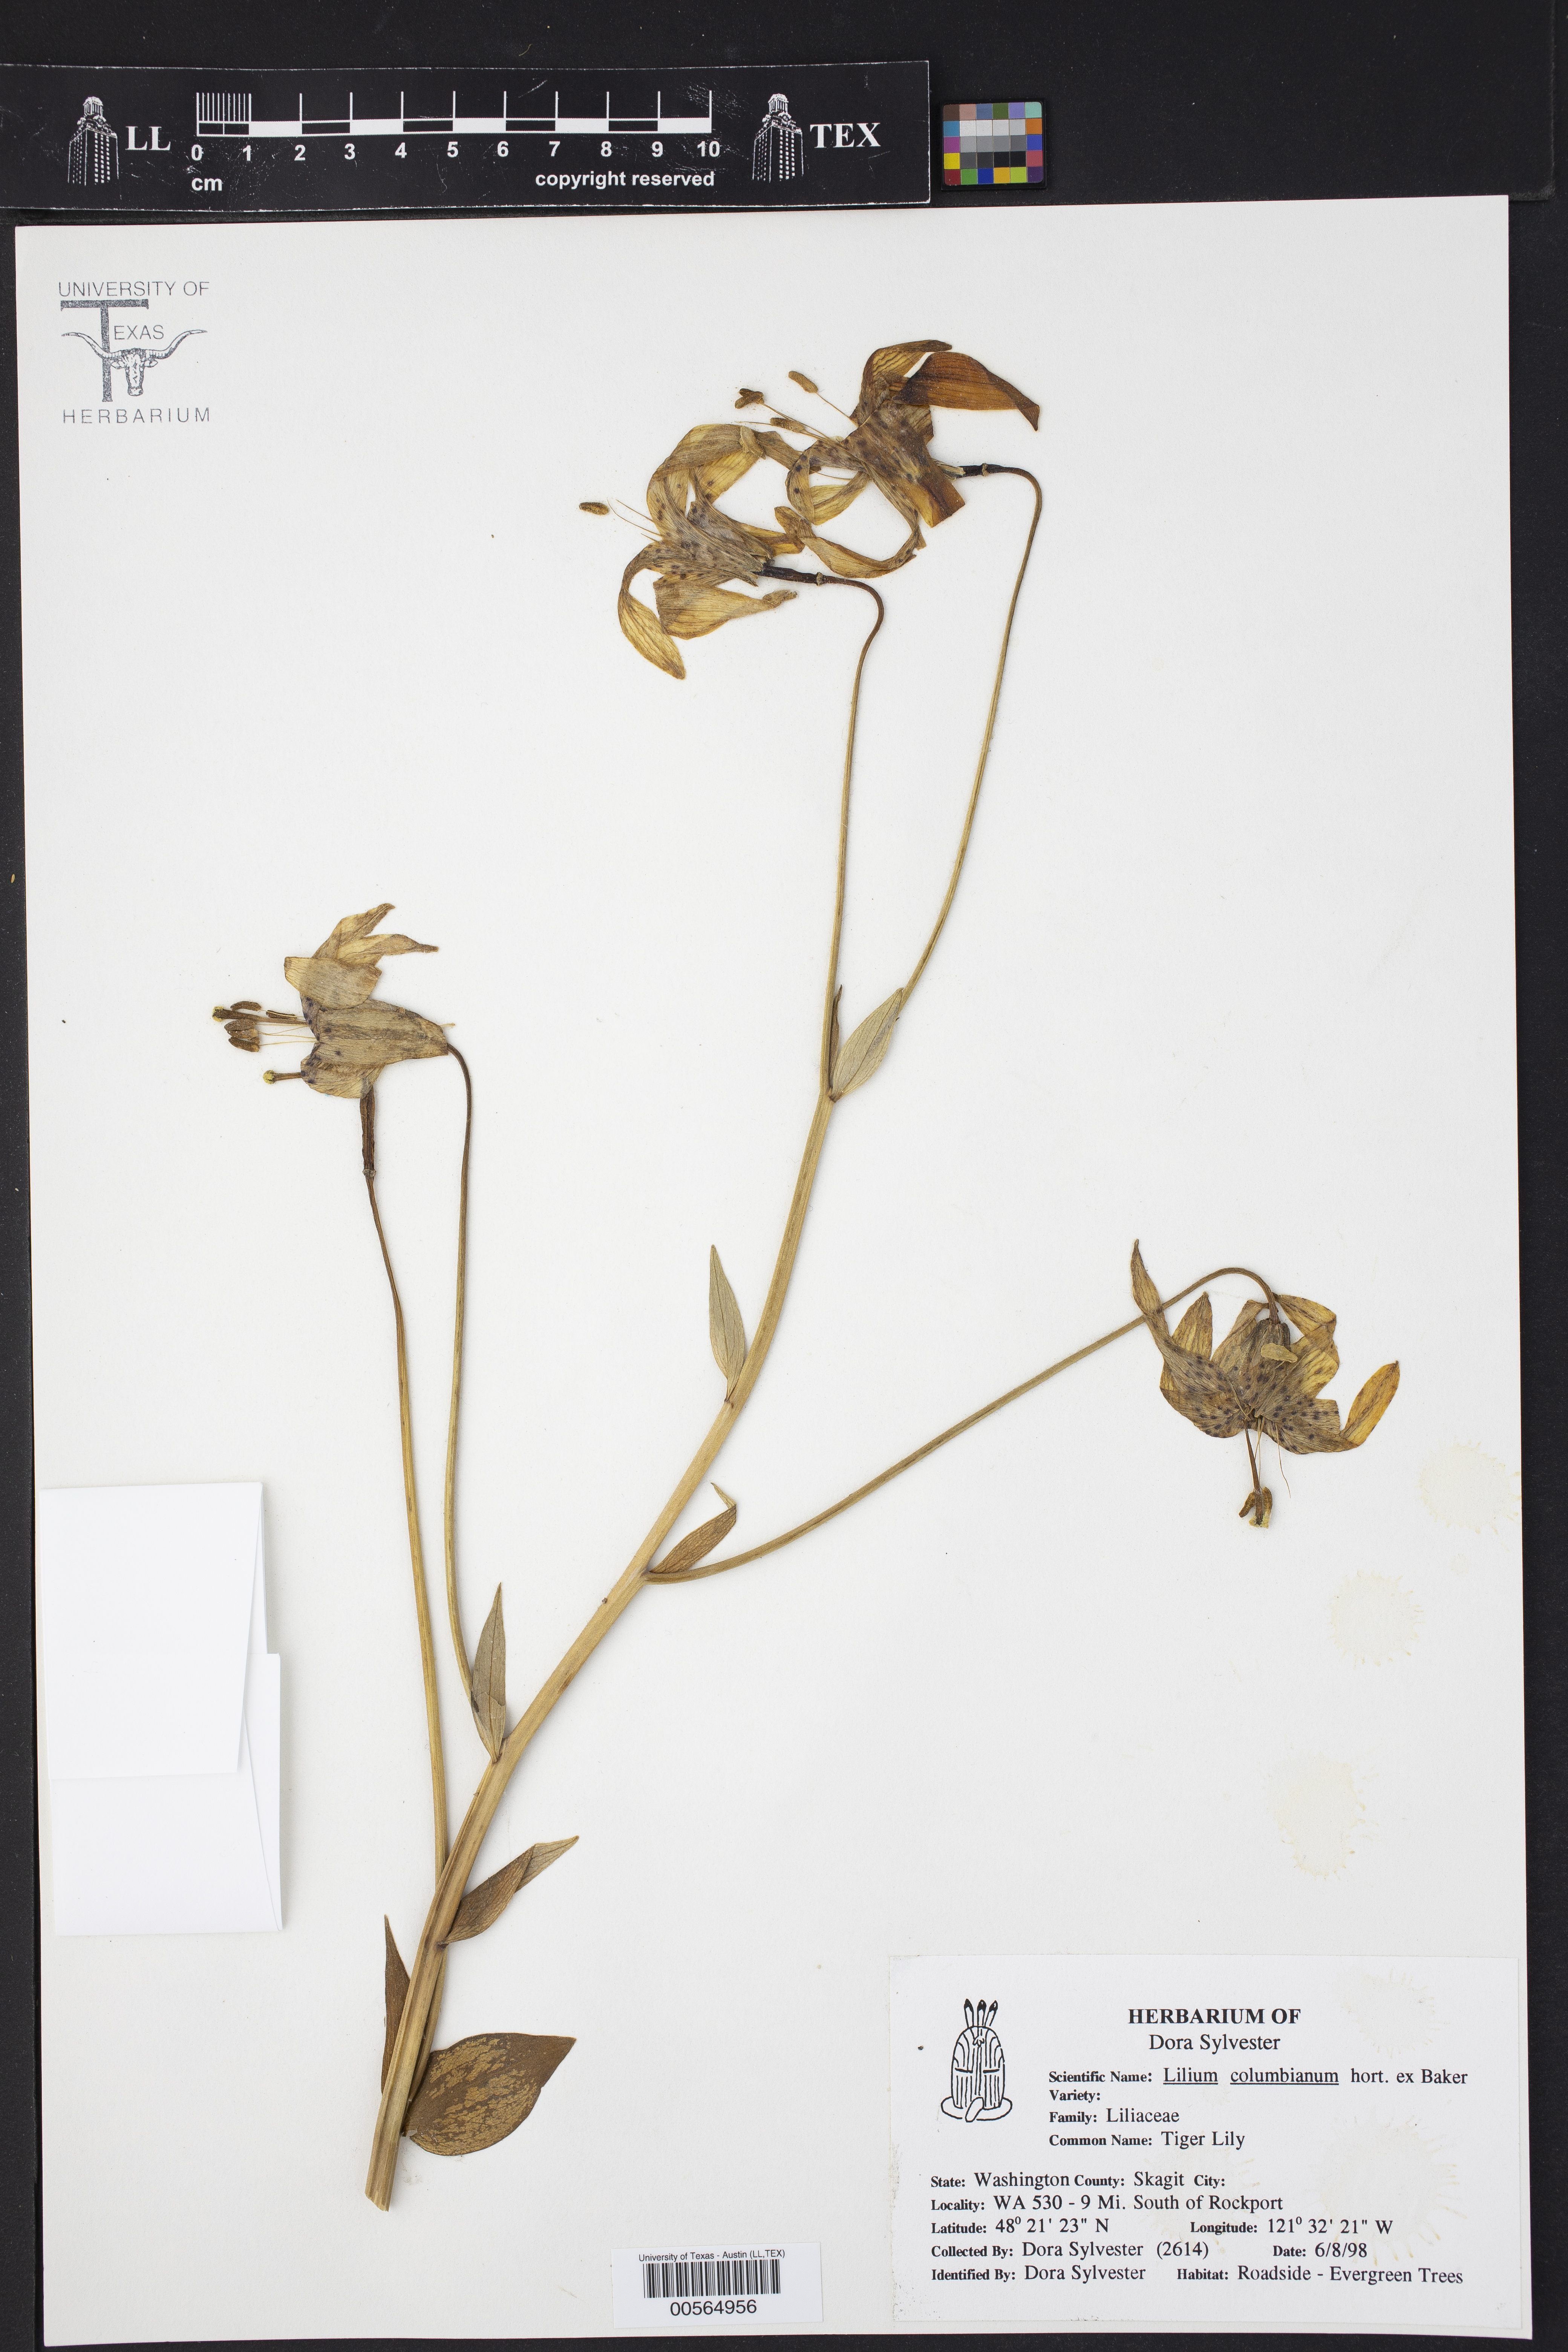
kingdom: Plantae
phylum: Tracheophyta
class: Liliopsida
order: Liliales
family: Liliaceae
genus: Lilium
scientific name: Lilium columbianum
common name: Columbia lily
